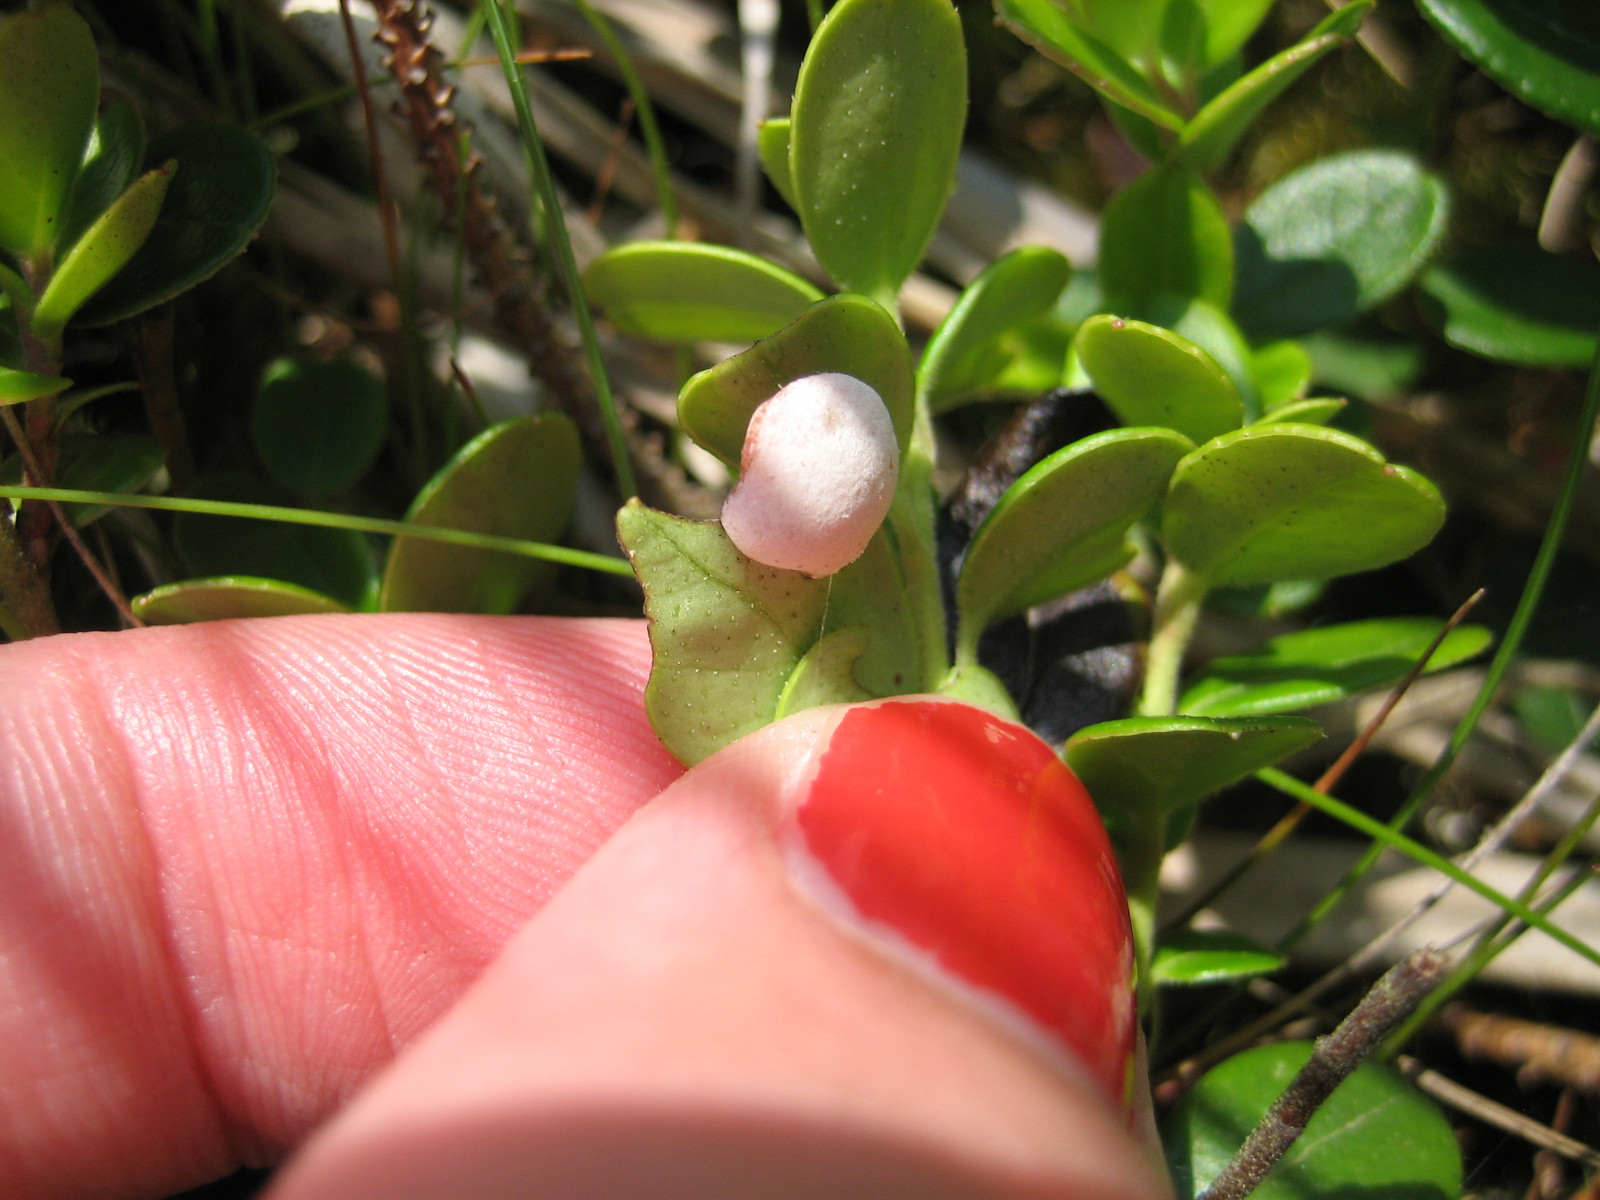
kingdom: Fungi
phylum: Basidiomycota
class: Exobasidiomycetes
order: Exobasidiales
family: Exobasidiaceae
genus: Exobasidium
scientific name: Exobasidium vaccinii
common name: tyttebærblad-bøllesvamp
